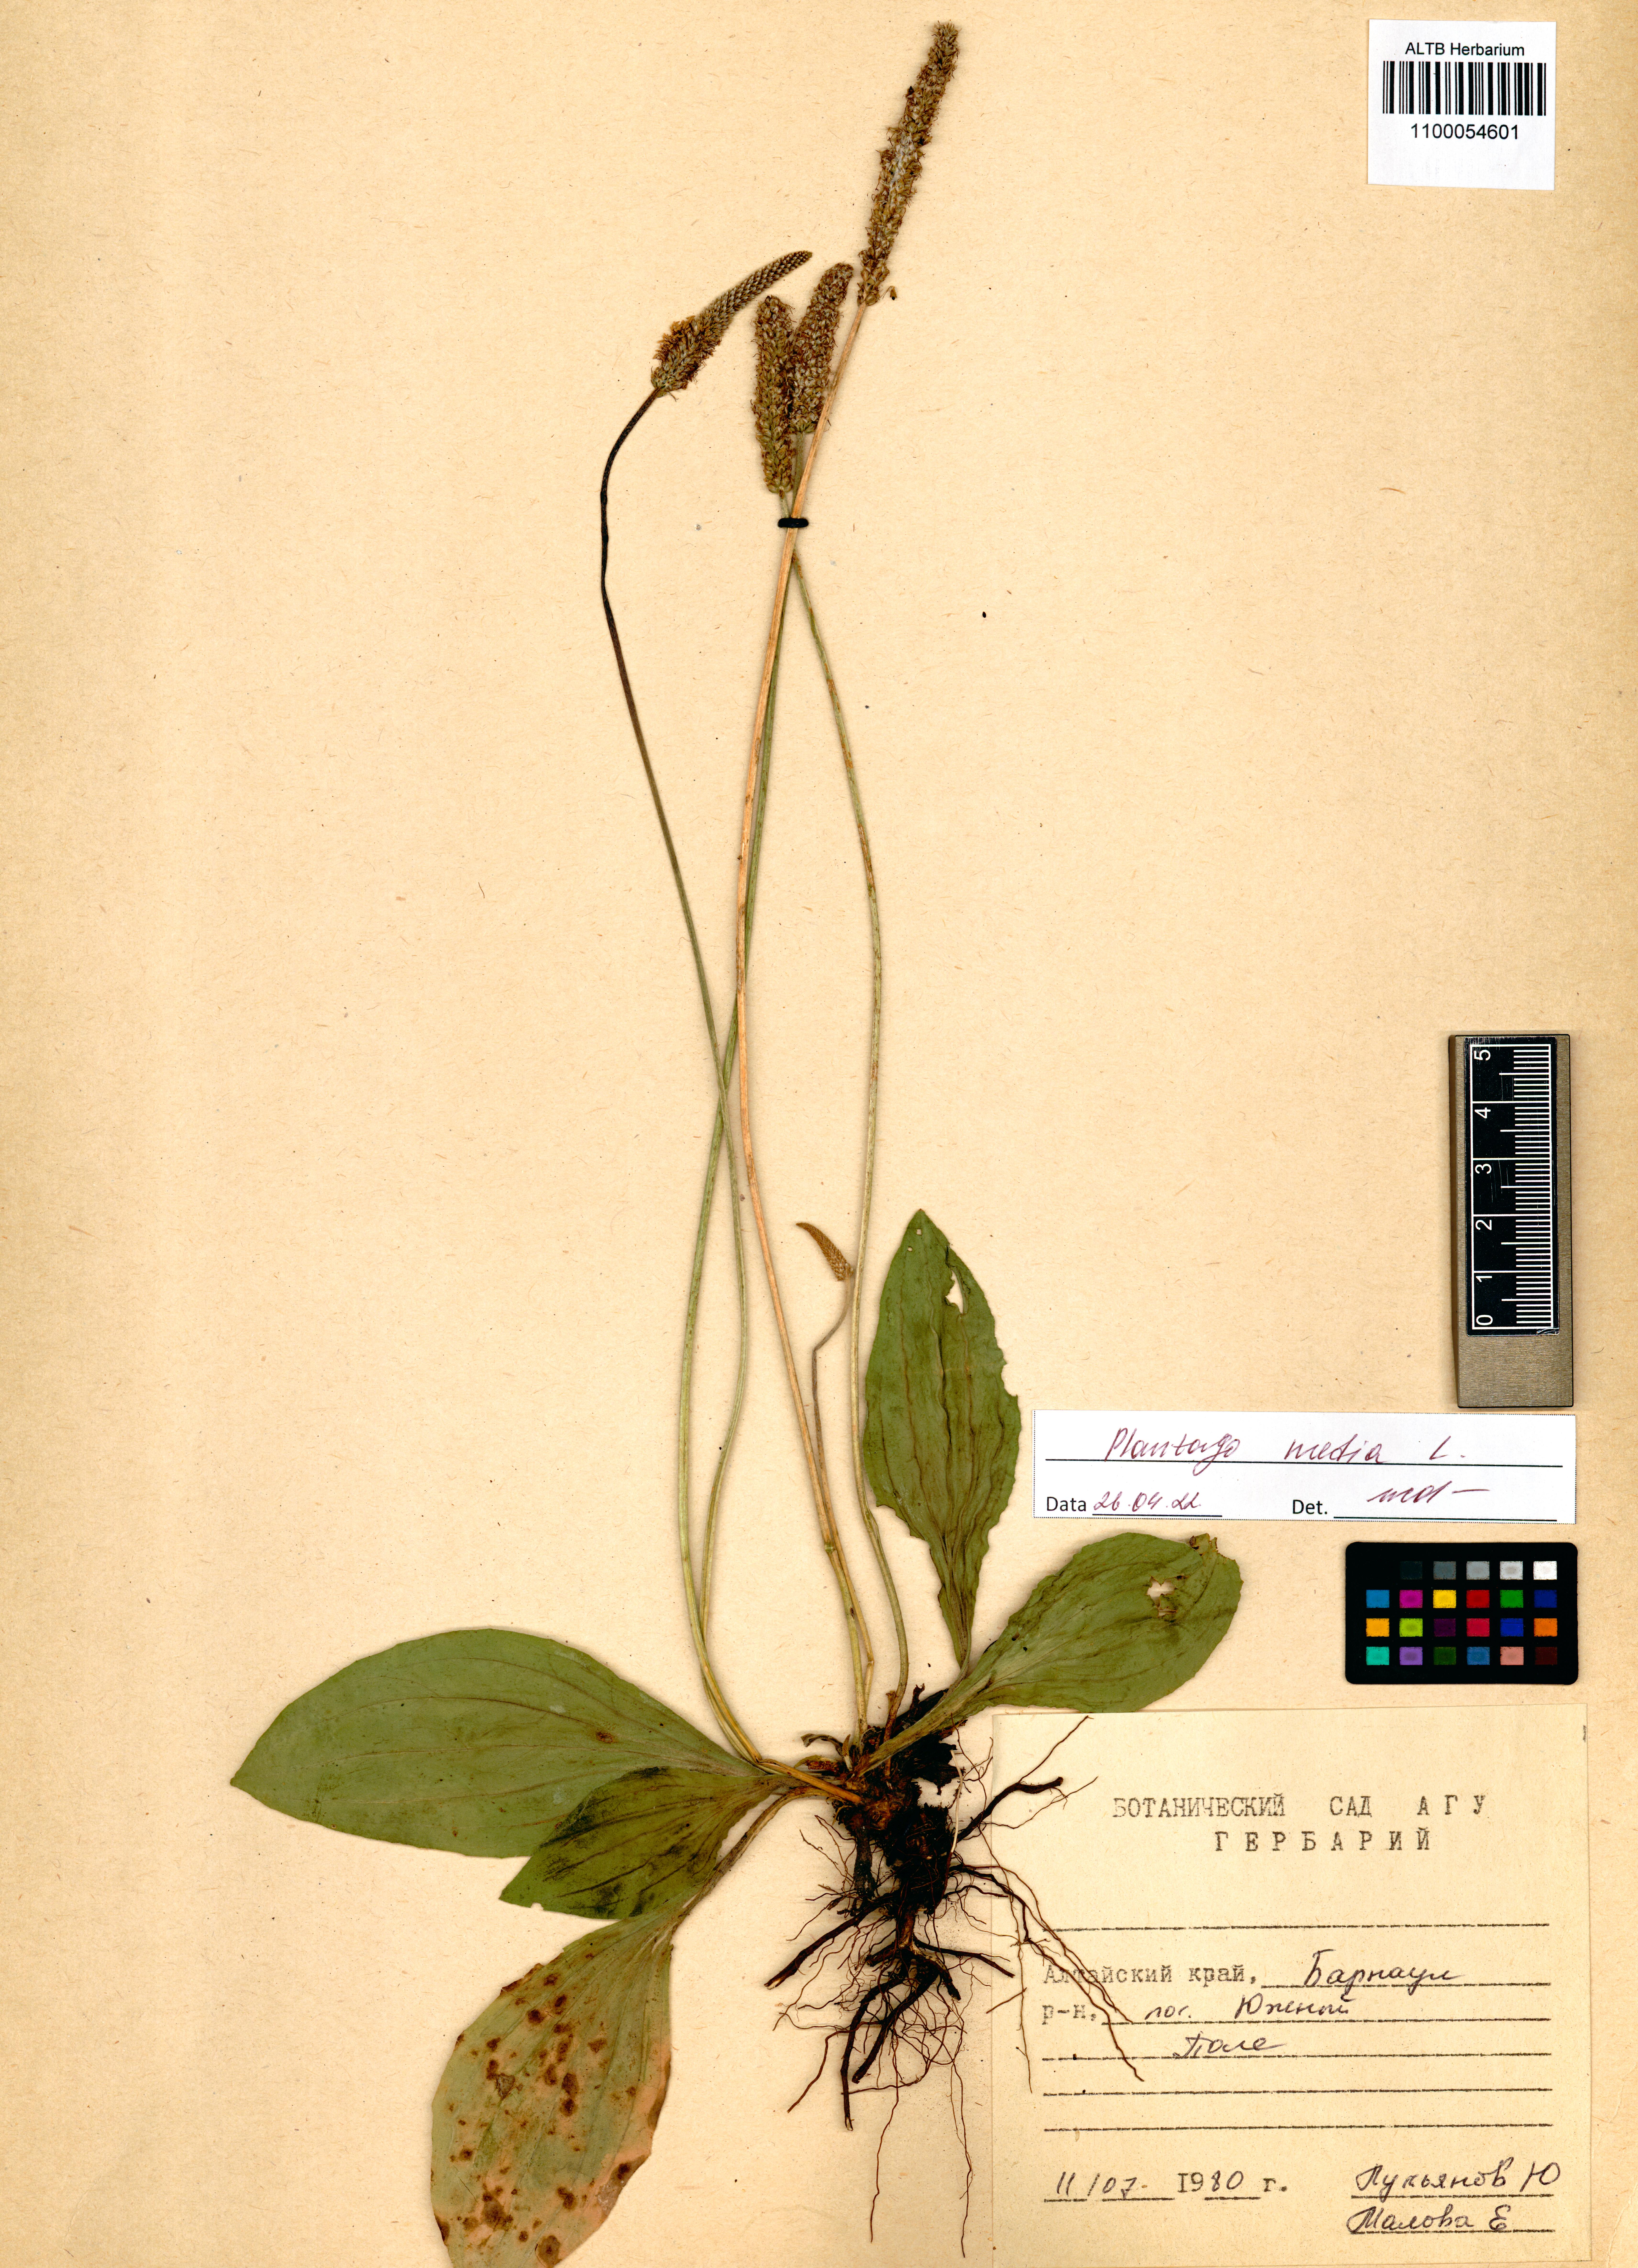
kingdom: Plantae
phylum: Tracheophyta
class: Magnoliopsida
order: Lamiales
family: Plantaginaceae
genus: Plantago
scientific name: Plantago media
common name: Hoary plantain
